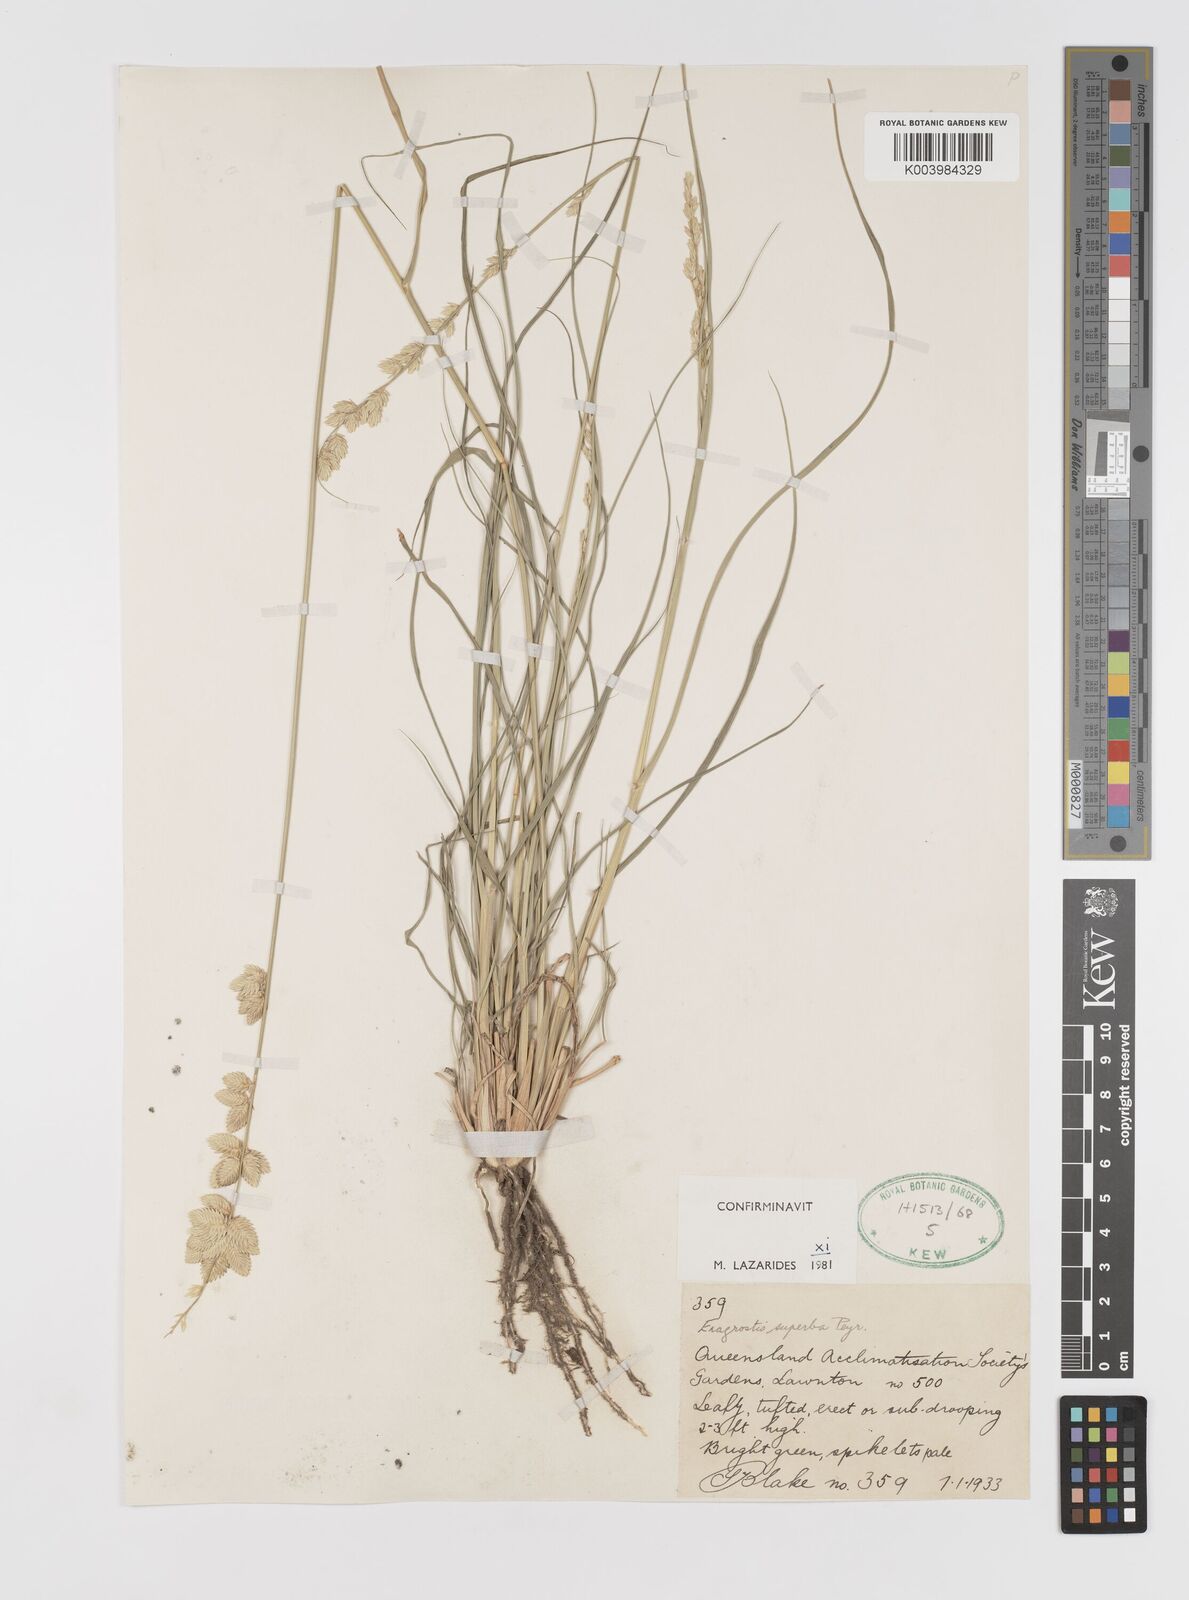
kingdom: Plantae
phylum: Tracheophyta
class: Liliopsida
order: Poales
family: Poaceae
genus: Eragrostis
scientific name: Eragrostis superba
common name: Wilman lovegrass
